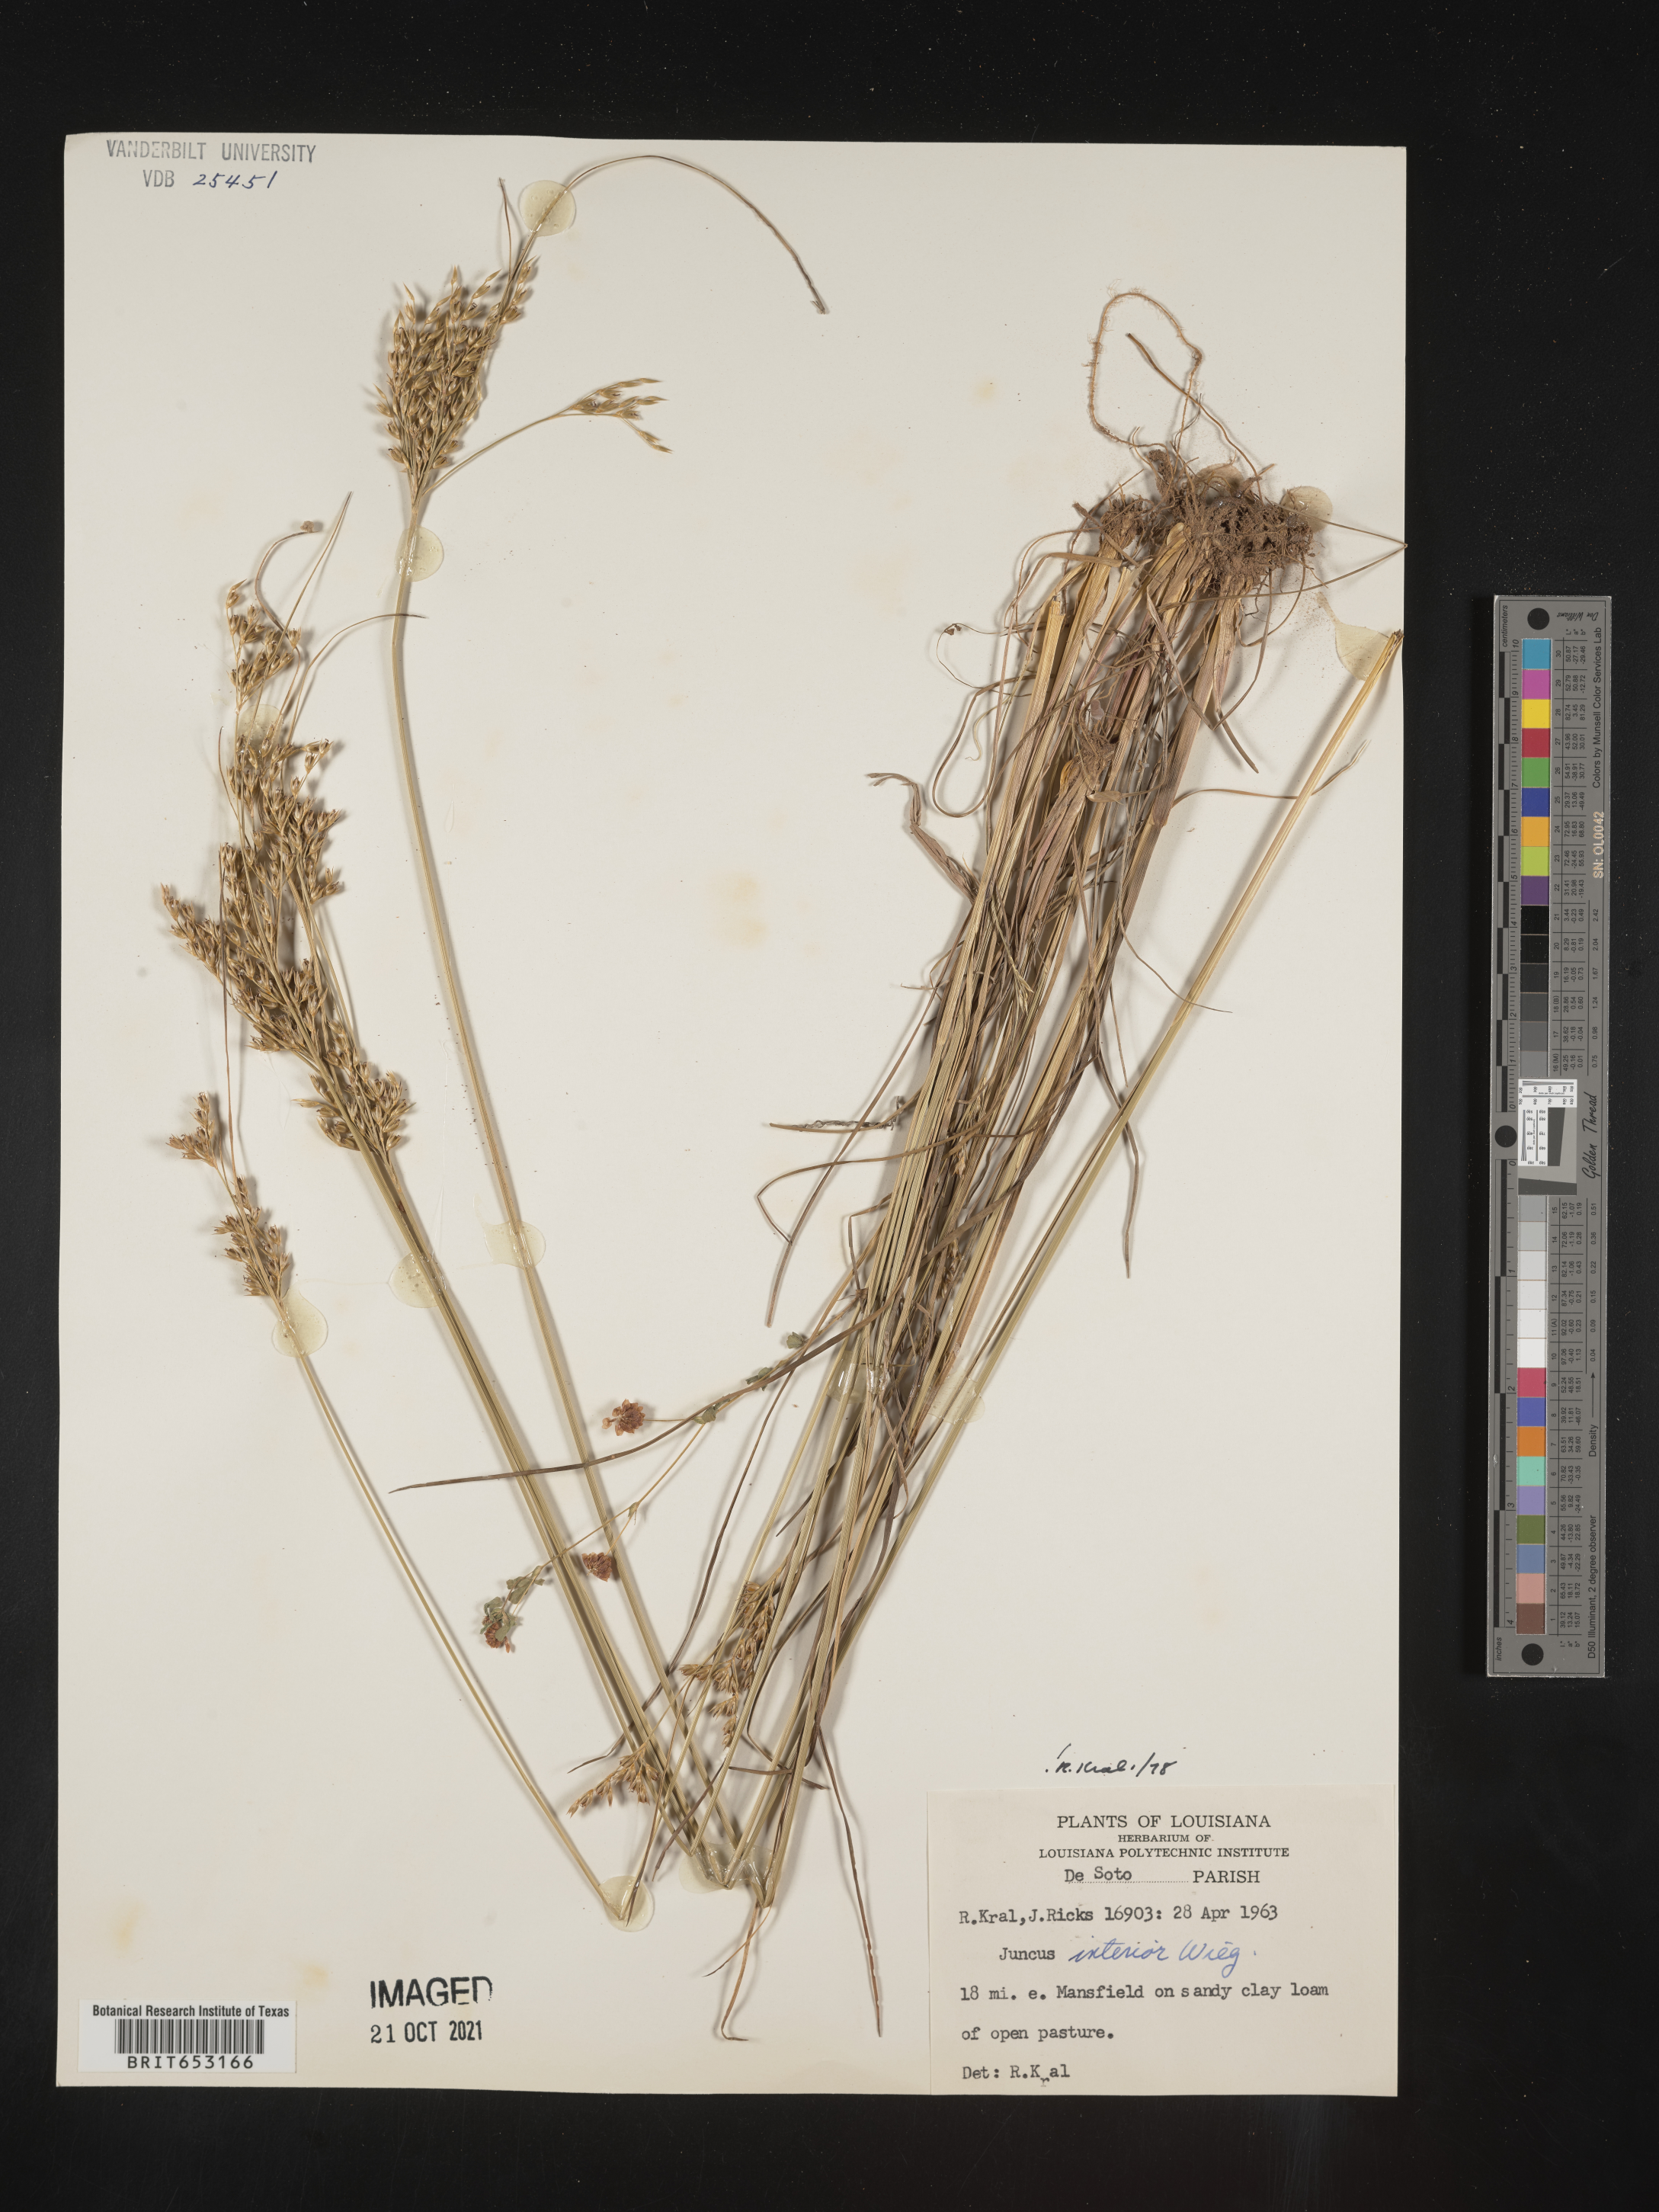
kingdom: Plantae
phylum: Tracheophyta
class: Liliopsida
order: Poales
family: Juncaceae
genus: Juncus
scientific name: Juncus interior
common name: Interior rush
